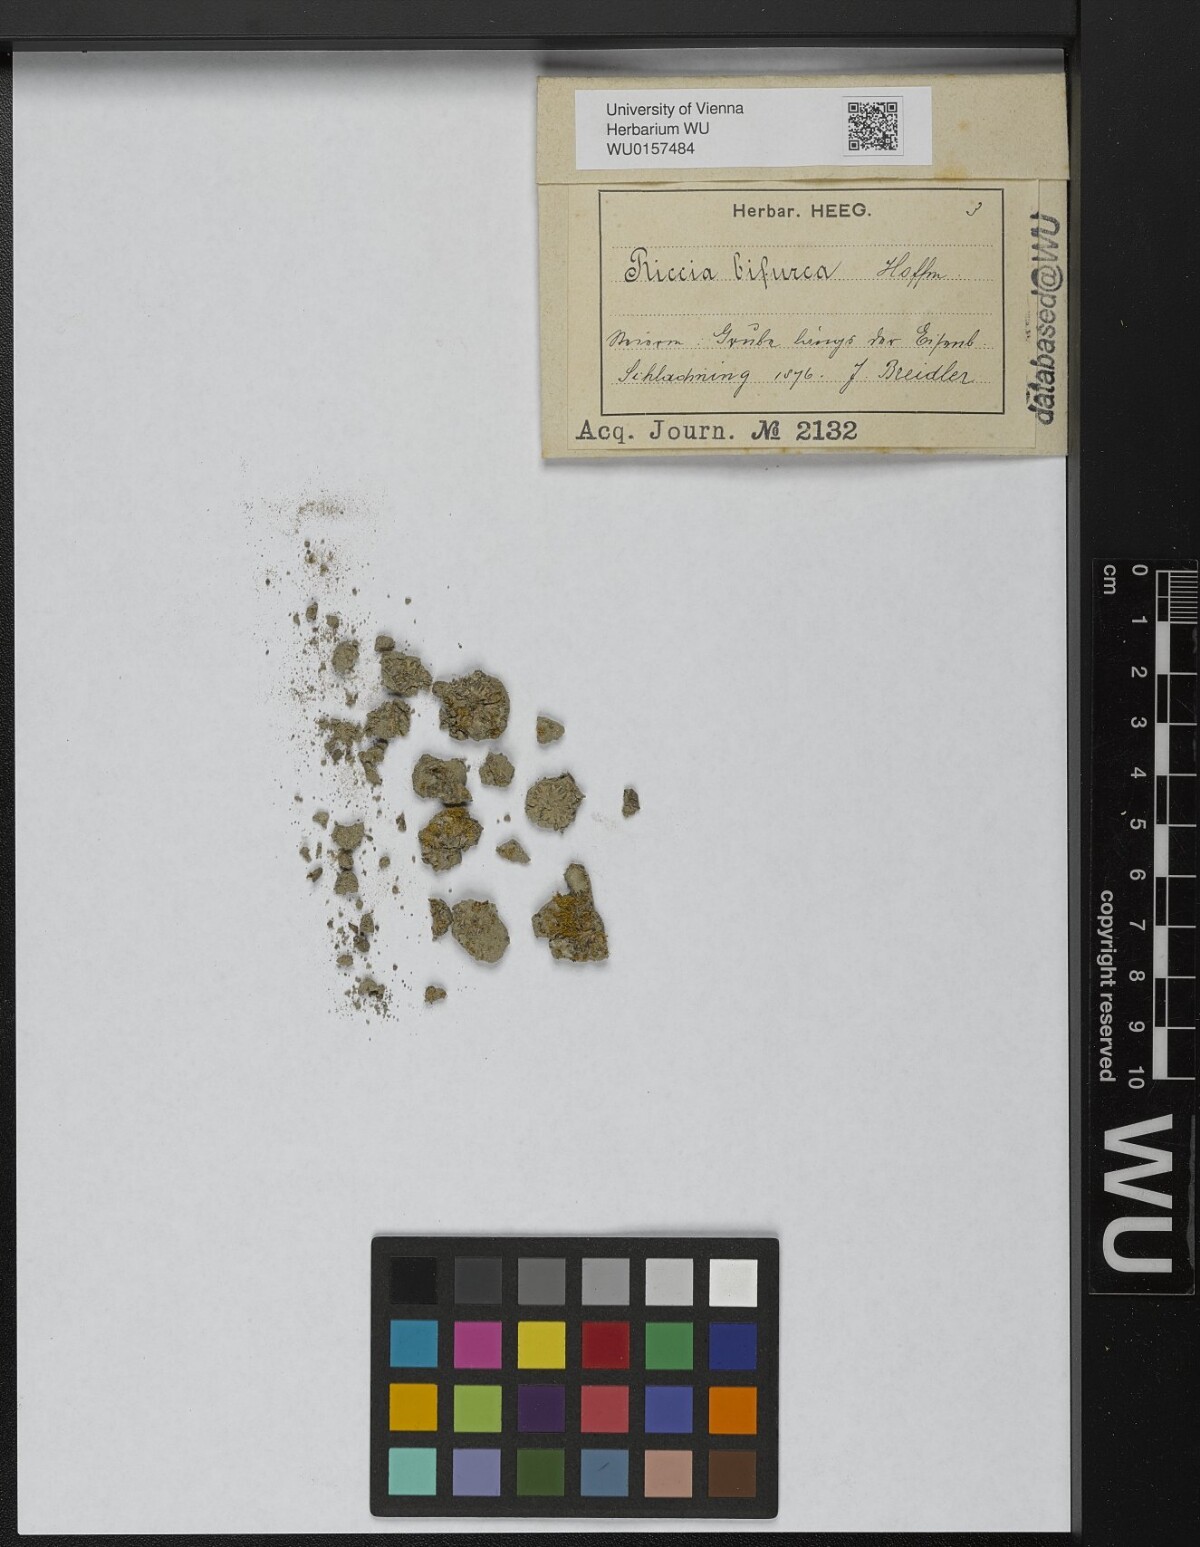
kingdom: Plantae
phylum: Marchantiophyta
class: Marchantiopsida
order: Marchantiales
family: Ricciaceae
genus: Riccia
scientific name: Riccia bifurca
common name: Lizard crystalwort
